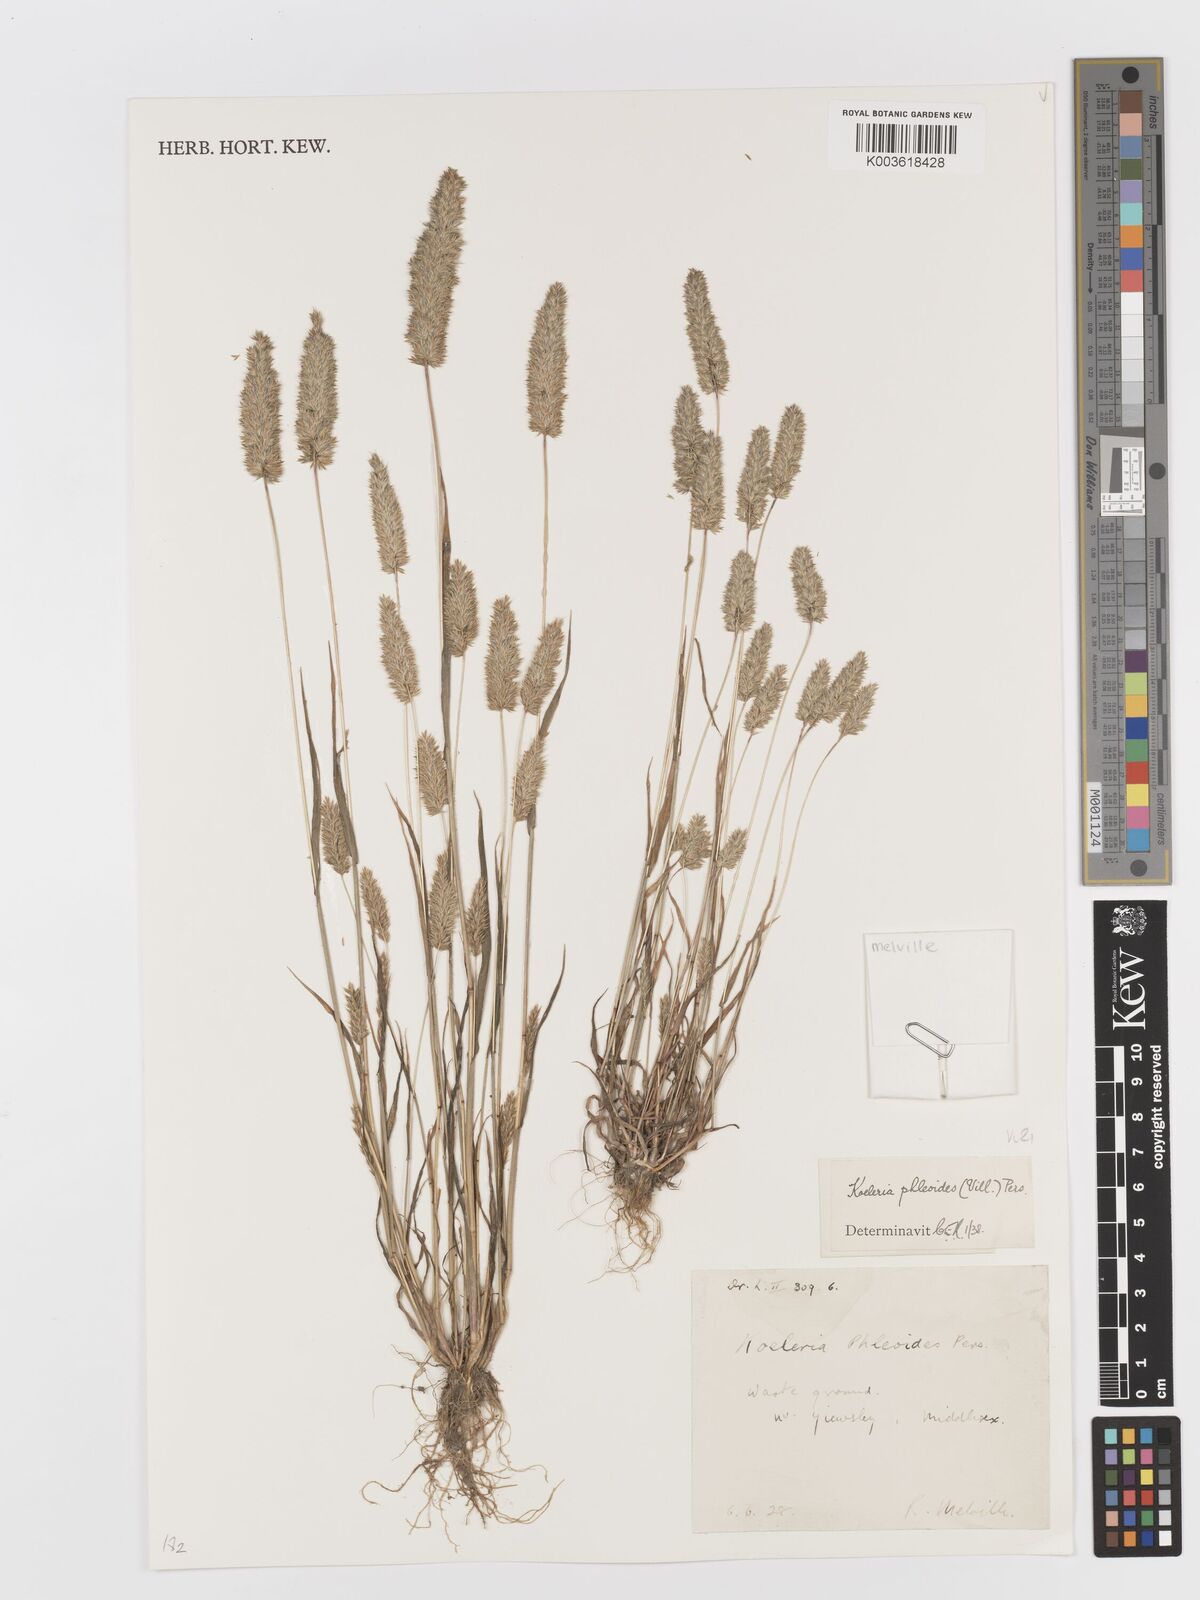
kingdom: Plantae
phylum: Tracheophyta
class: Liliopsida
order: Poales
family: Poaceae
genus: Rostraria
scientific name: Rostraria cristata
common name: Mediterranean hair-grass
